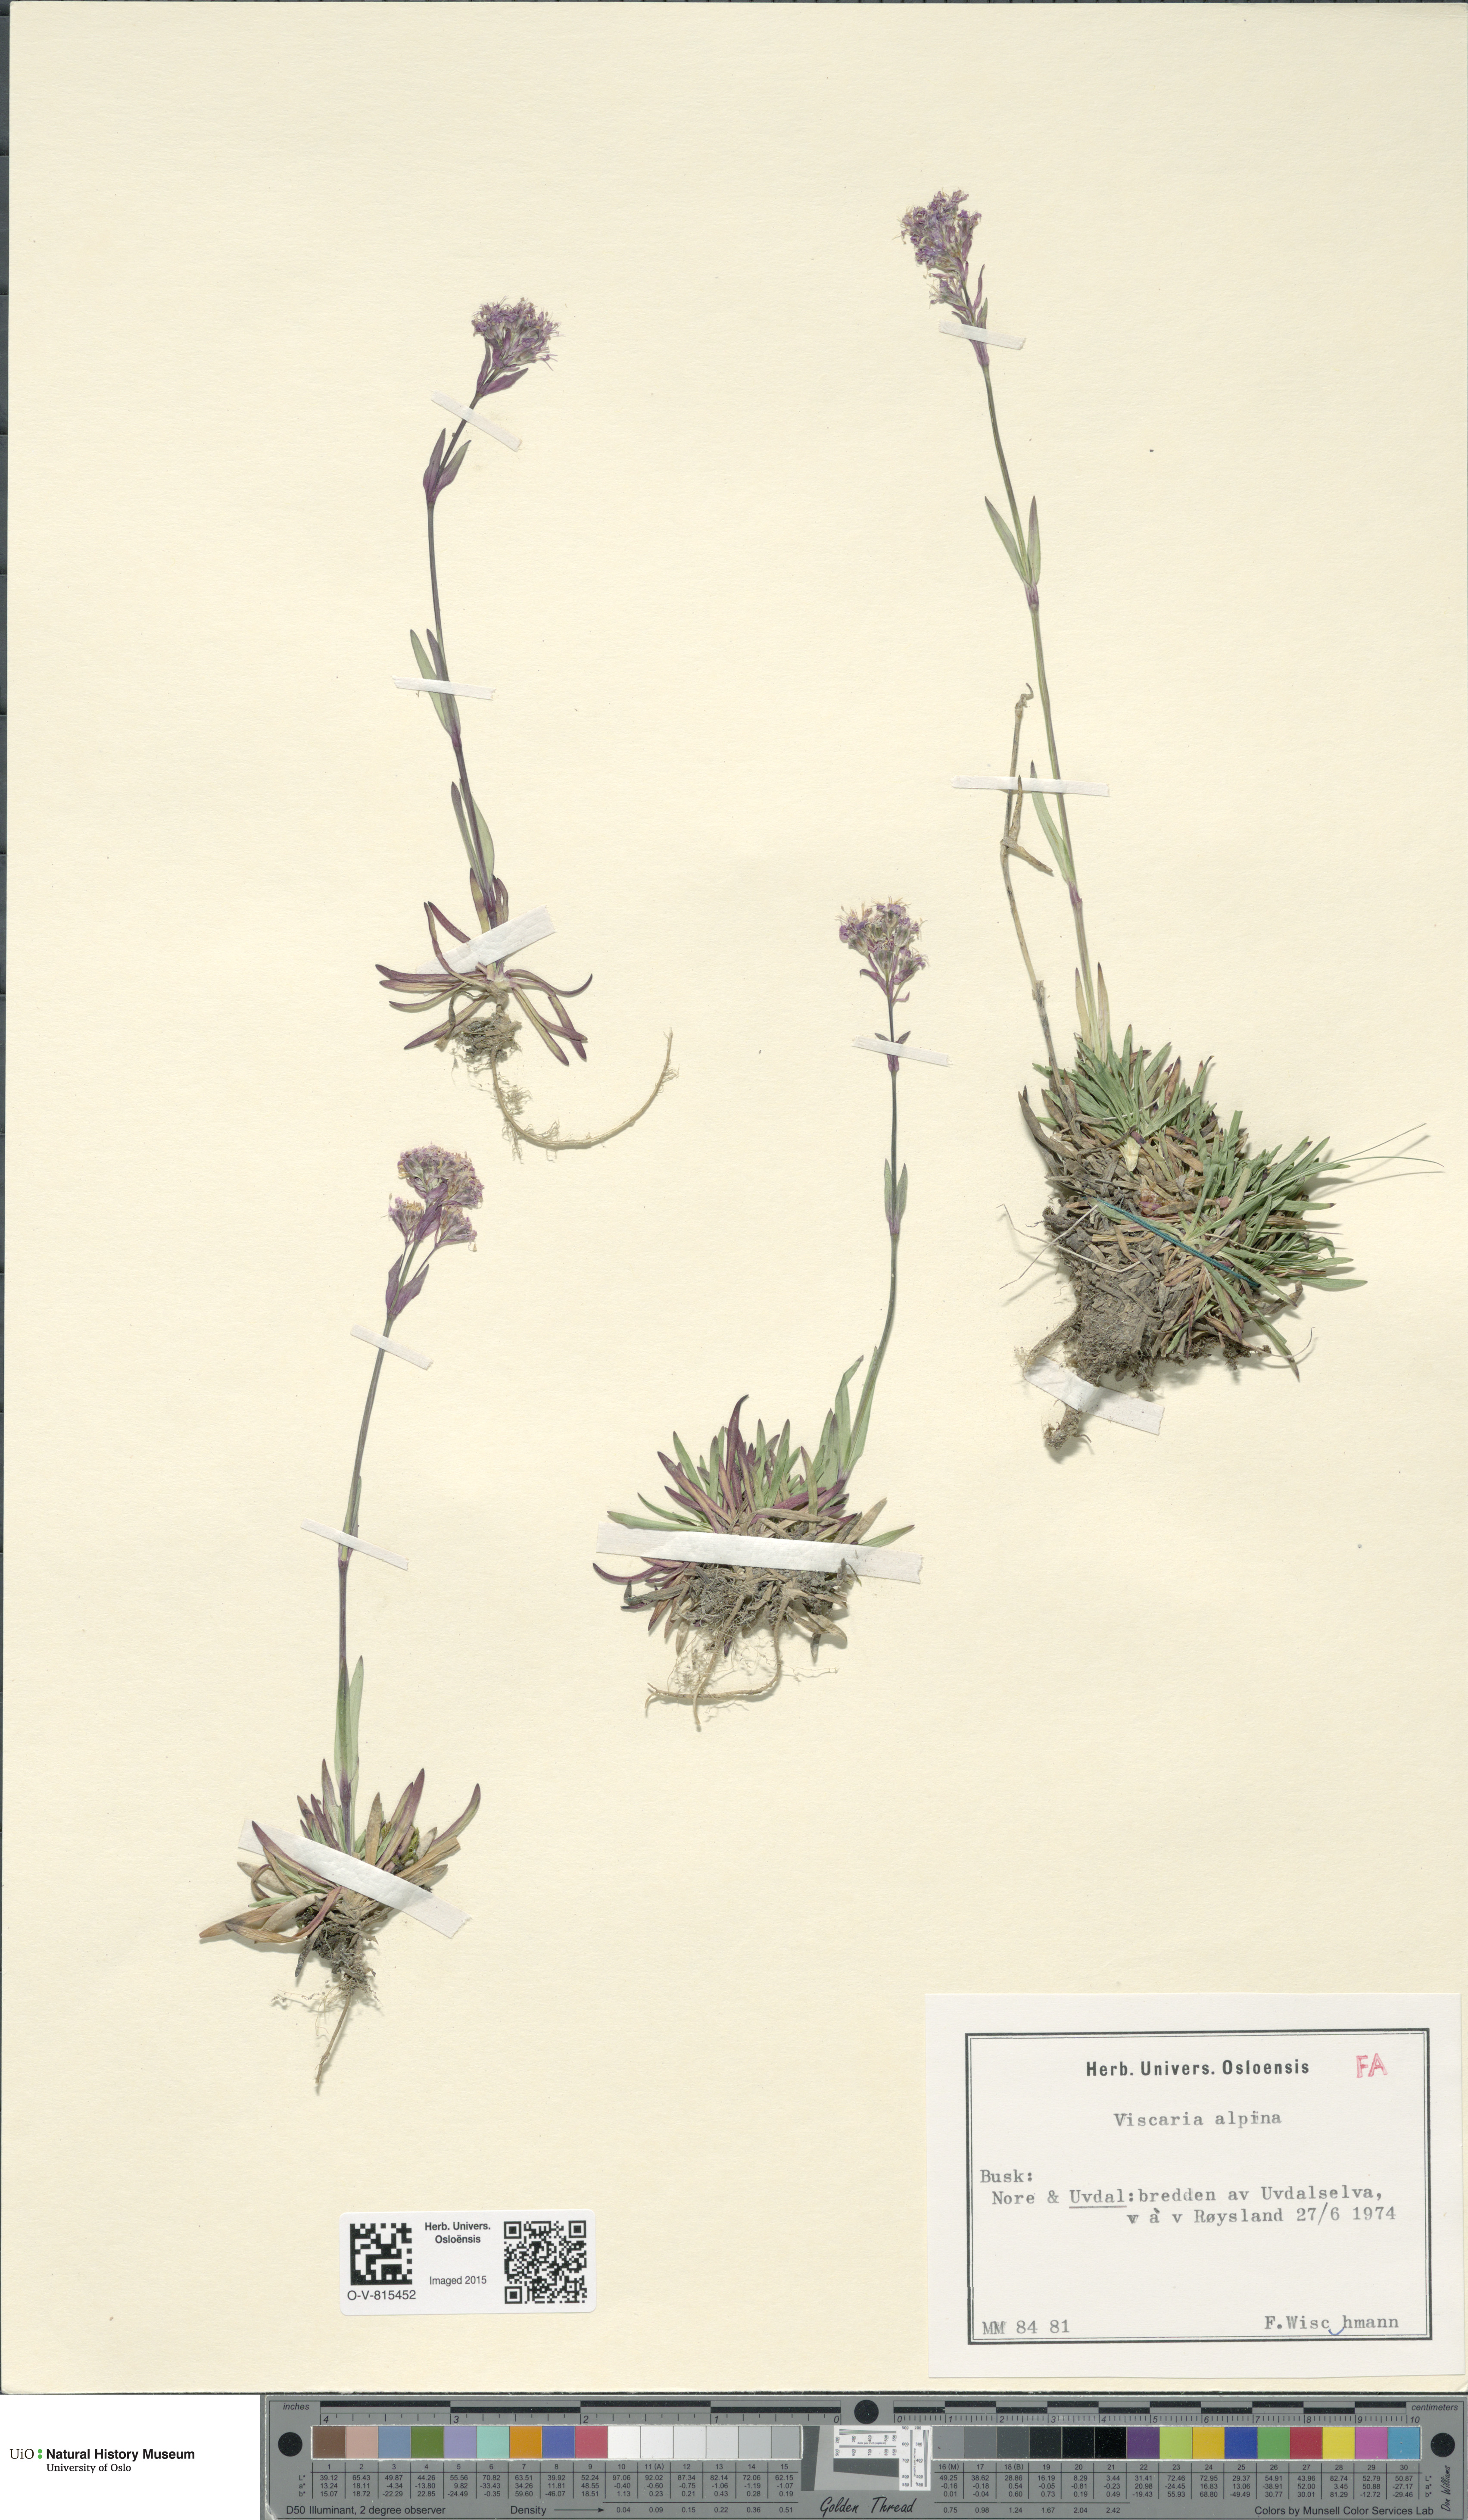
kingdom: Plantae
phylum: Tracheophyta
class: Magnoliopsida
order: Caryophyllales
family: Caryophyllaceae
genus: Viscaria
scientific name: Viscaria alpina
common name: Alpine campion
